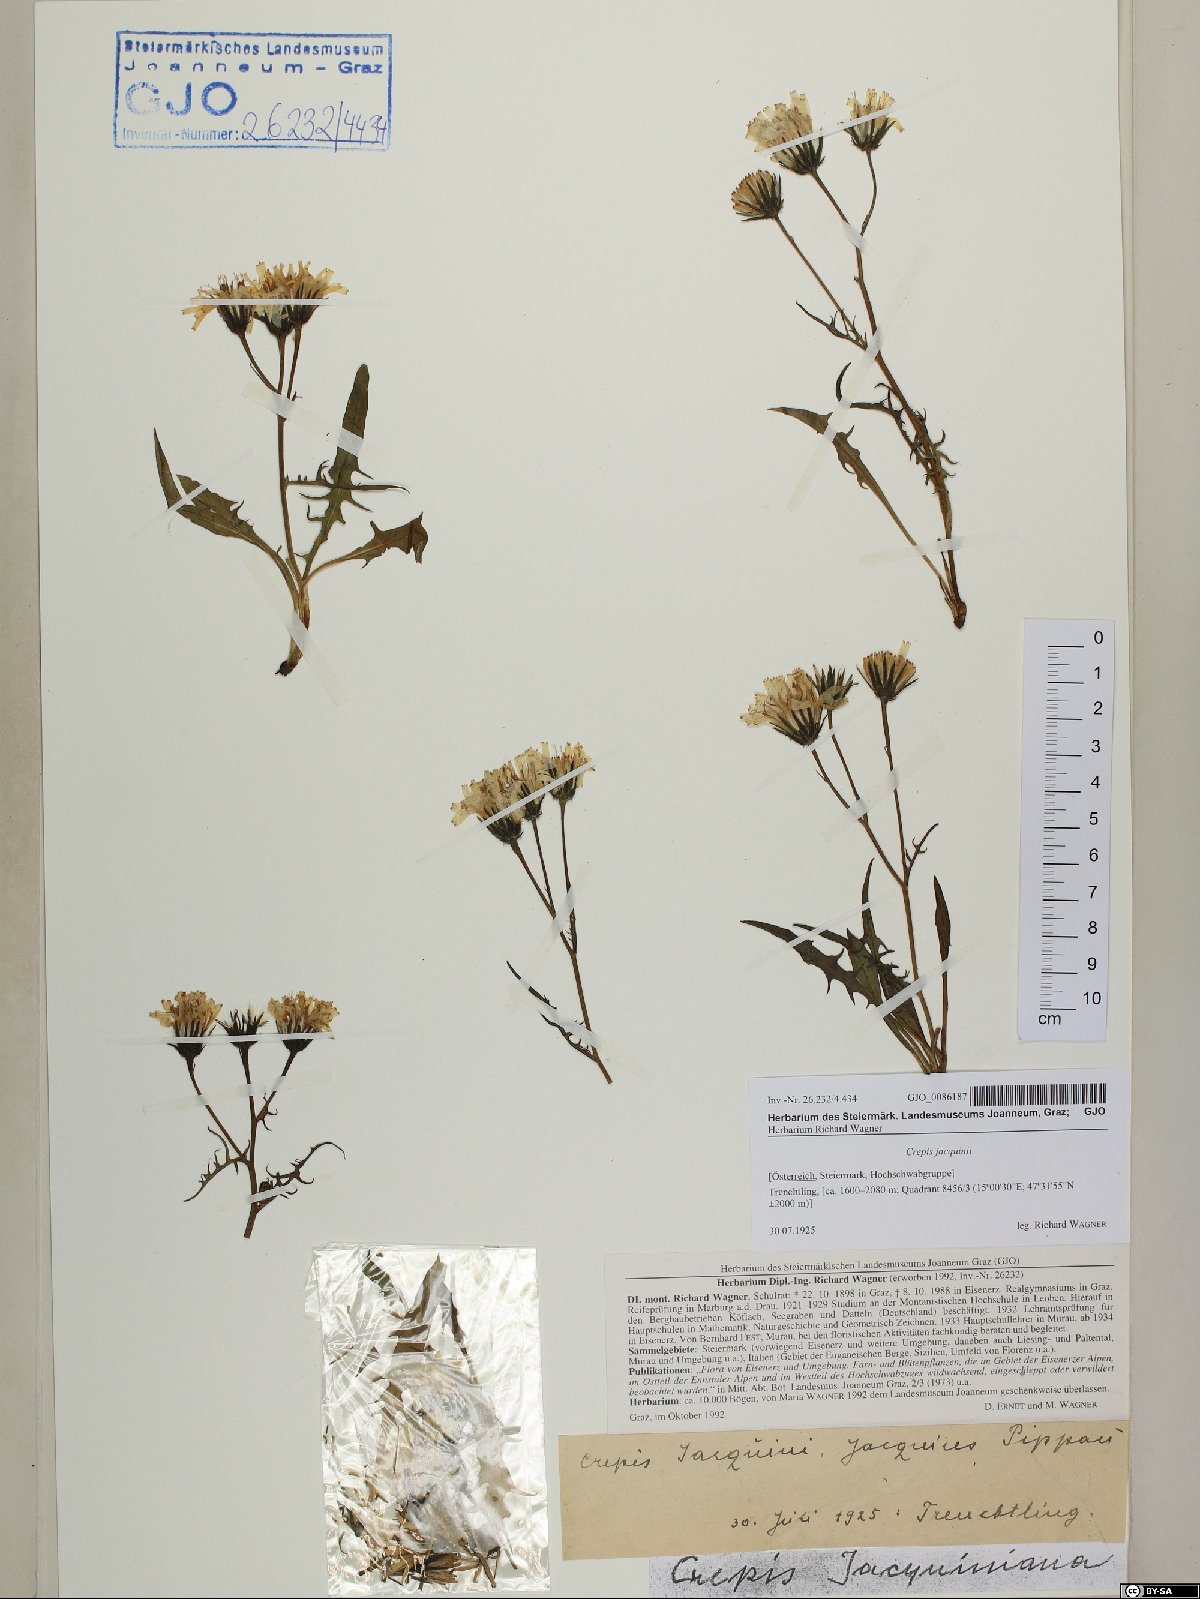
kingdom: Plantae
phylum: Tracheophyta
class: Magnoliopsida
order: Asterales
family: Asteraceae
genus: Crepis
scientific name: Crepis jacquinii
